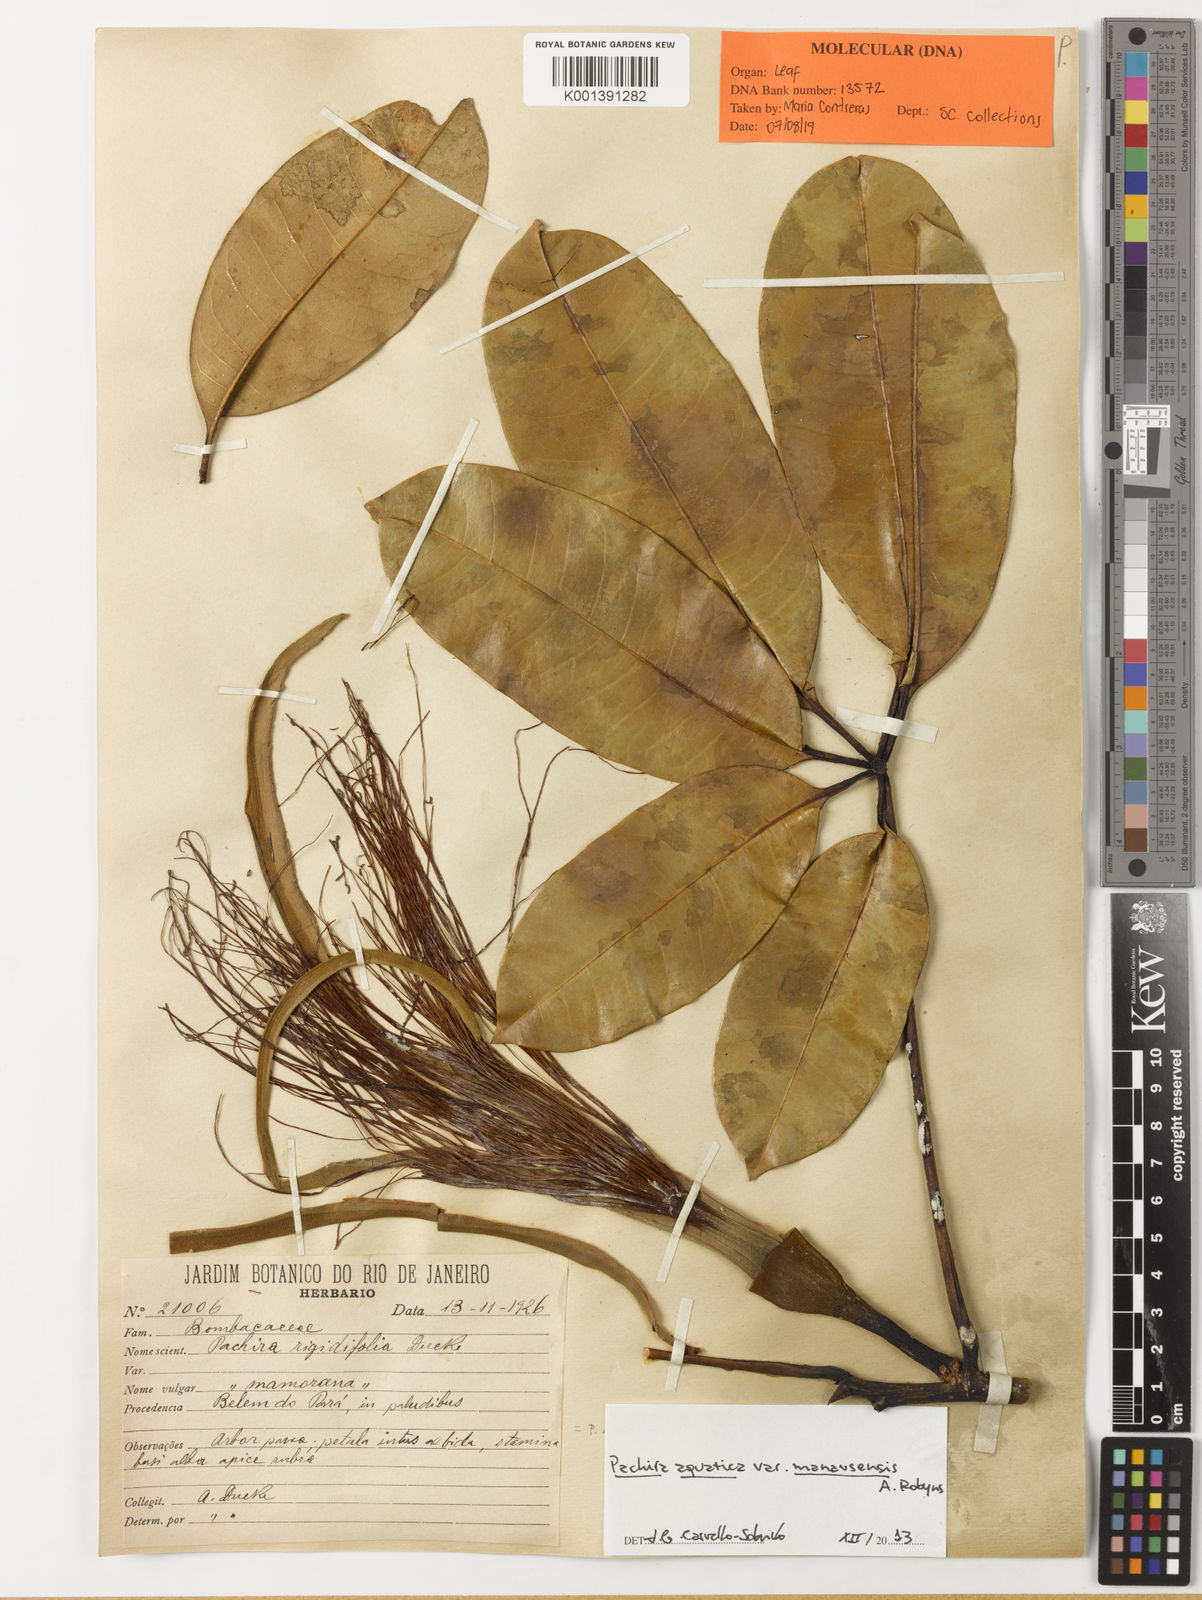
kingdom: Plantae
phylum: Tracheophyta
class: Magnoliopsida
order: Malvales
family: Malvaceae
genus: Pachira
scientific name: Pachira
